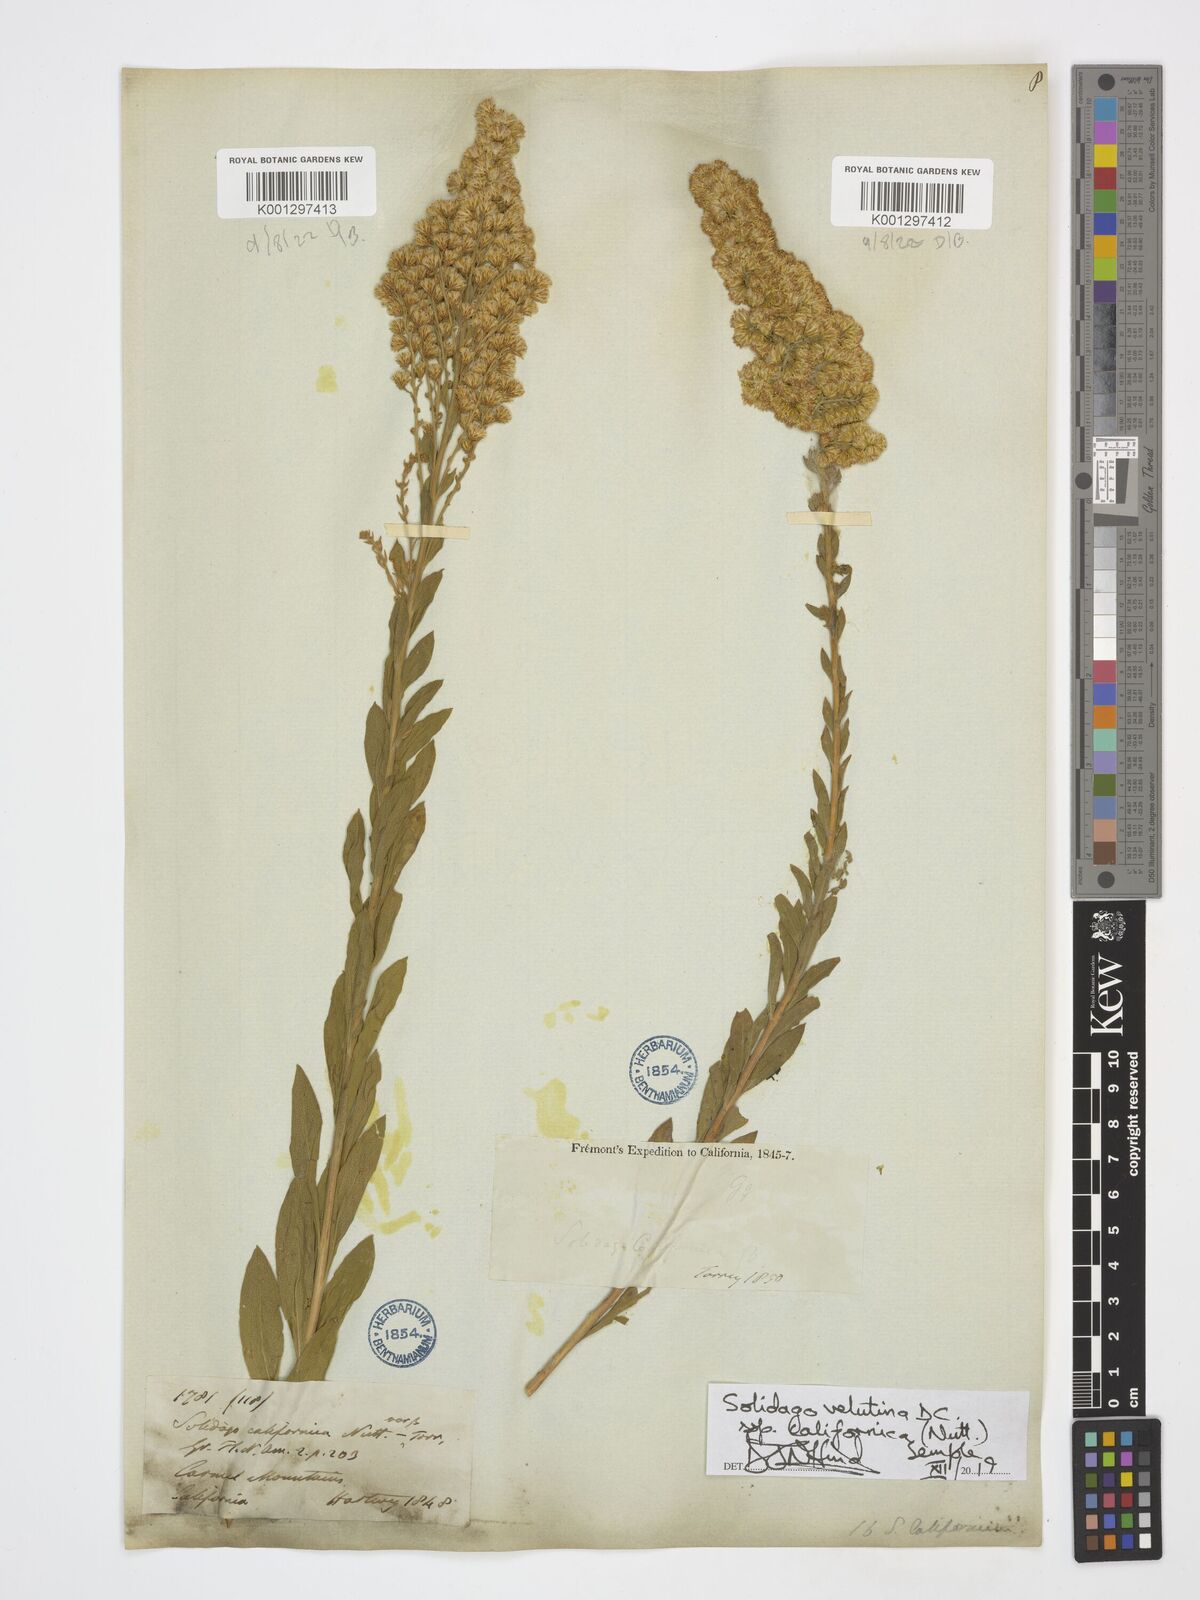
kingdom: Plantae
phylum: Tracheophyta
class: Magnoliopsida
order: Asterales
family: Asteraceae
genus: Solidago
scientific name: Solidago velutina
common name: Three-nerve goldenrod
